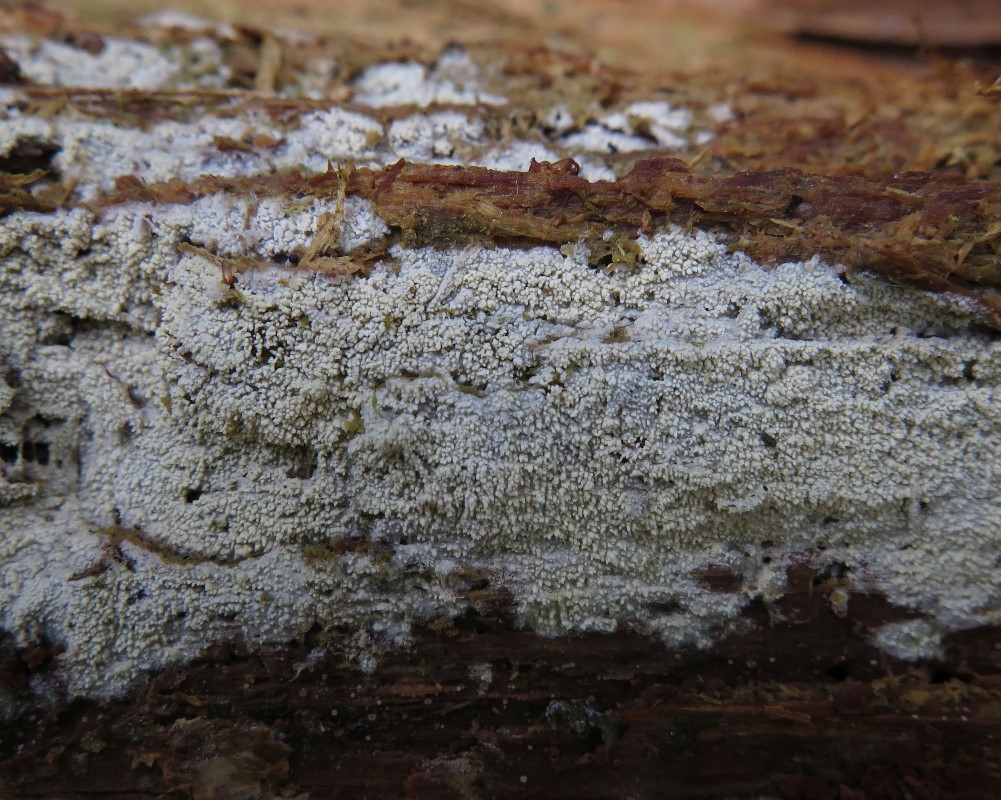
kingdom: Fungi
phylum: Basidiomycota
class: Agaricomycetes
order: Hymenochaetales
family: Schizoporaceae
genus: Alutaceodontia
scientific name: Alutaceodontia alutacea
